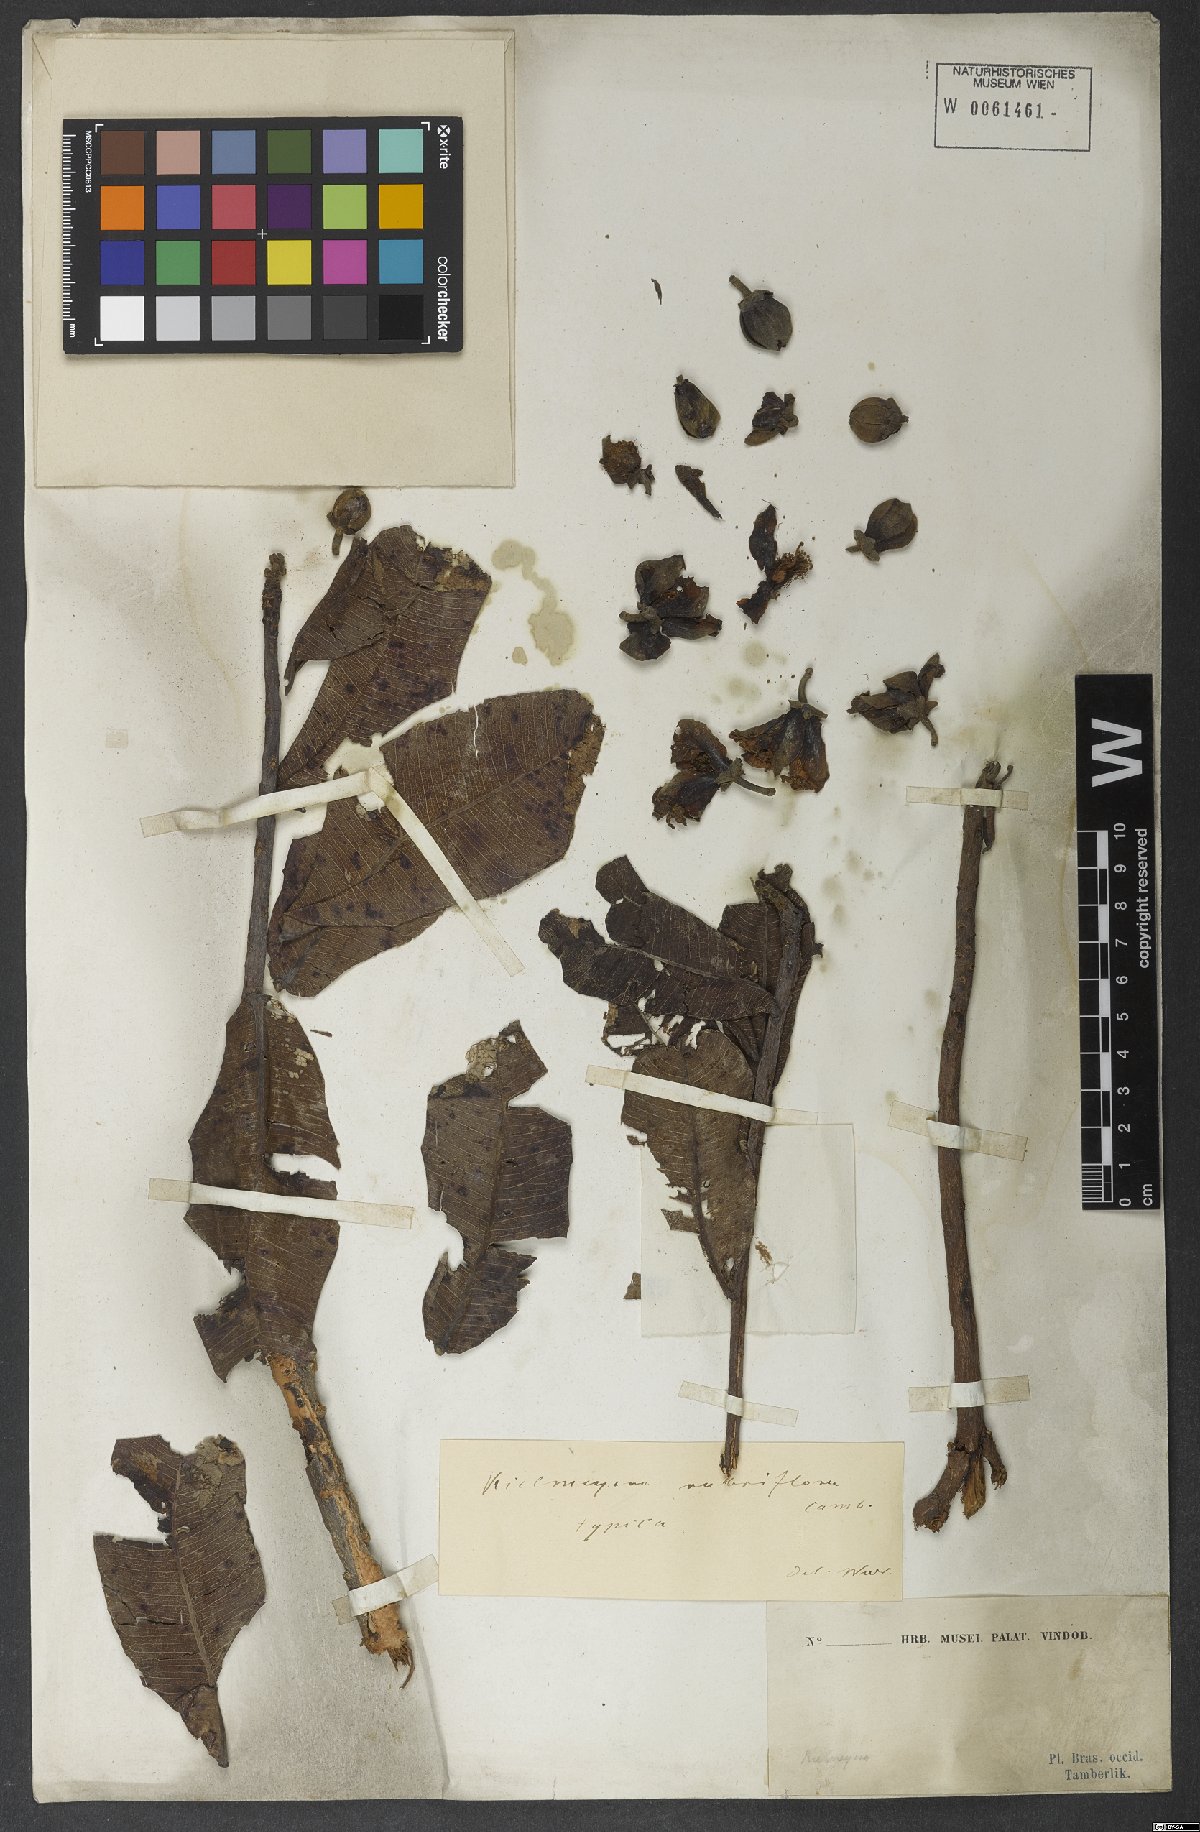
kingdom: Plantae
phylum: Tracheophyta
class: Magnoliopsida
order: Malpighiales
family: Calophyllaceae
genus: Kielmeyera
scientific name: Kielmeyera rubriflora
